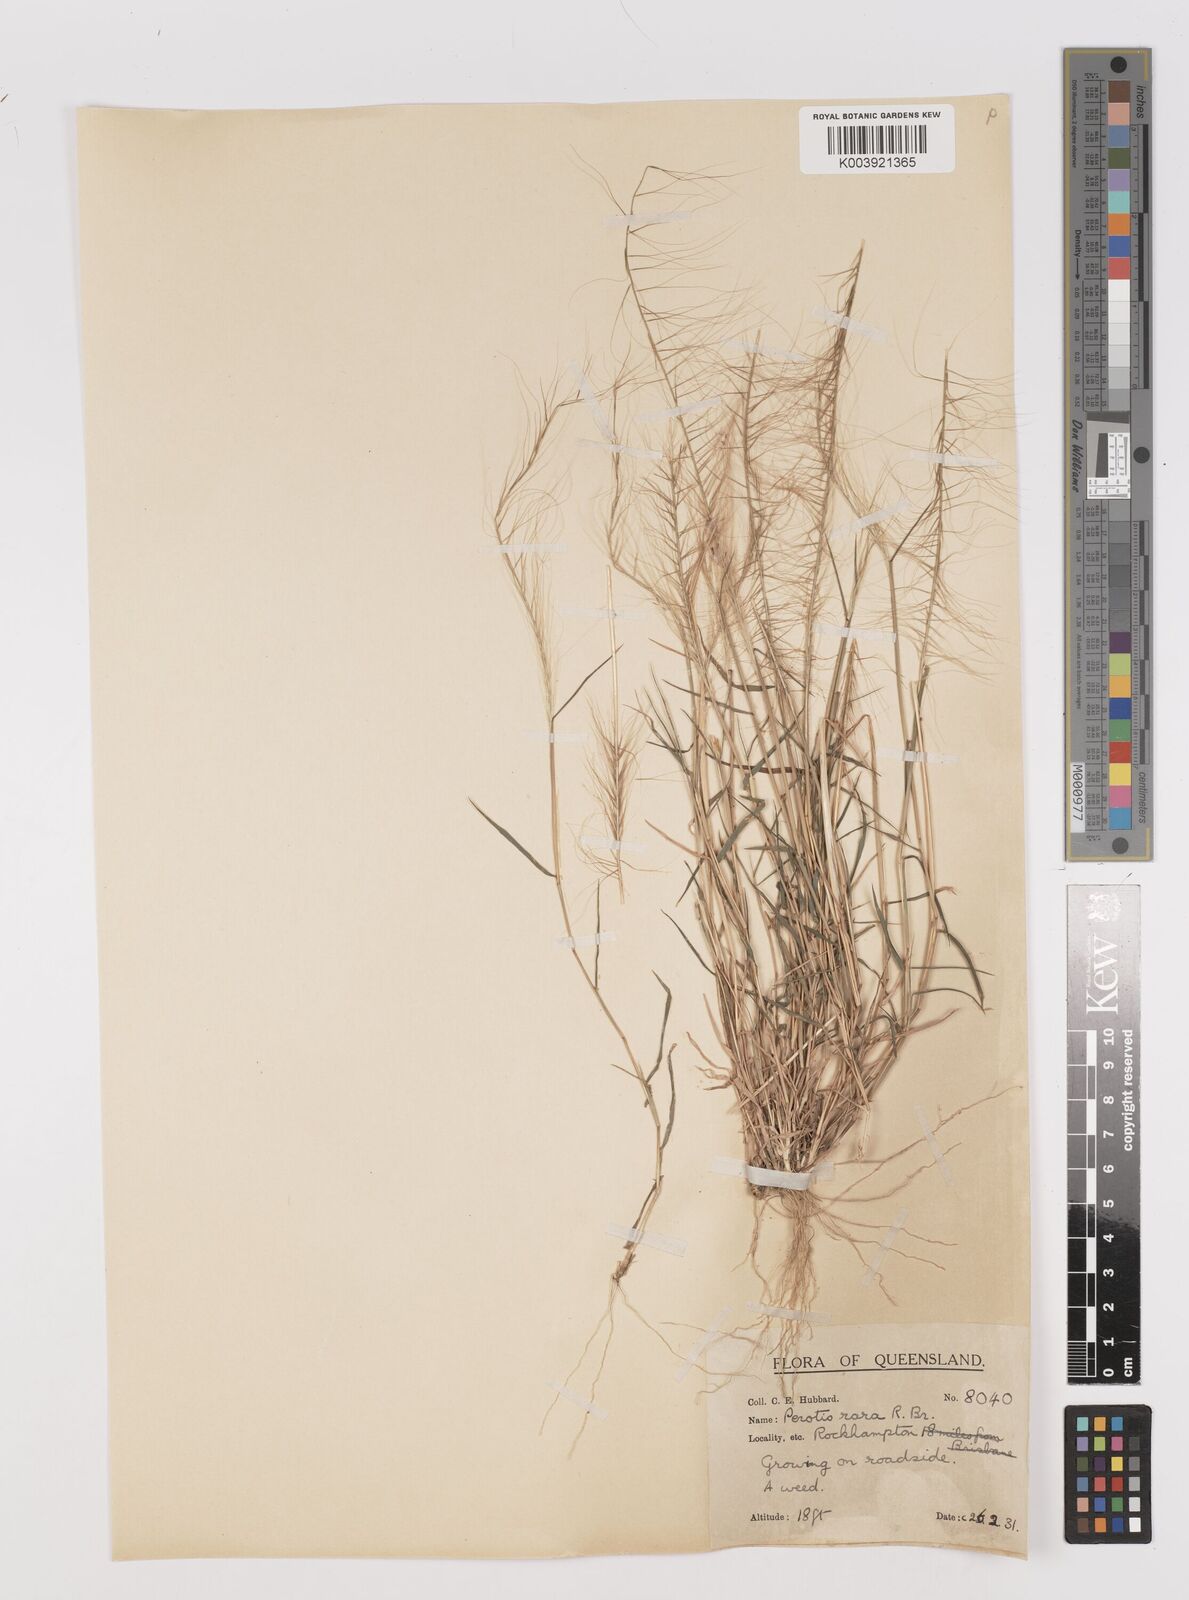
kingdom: Plantae
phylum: Tracheophyta
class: Liliopsida
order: Poales
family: Poaceae
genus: Perotis
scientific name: Perotis rara
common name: Comet grass
